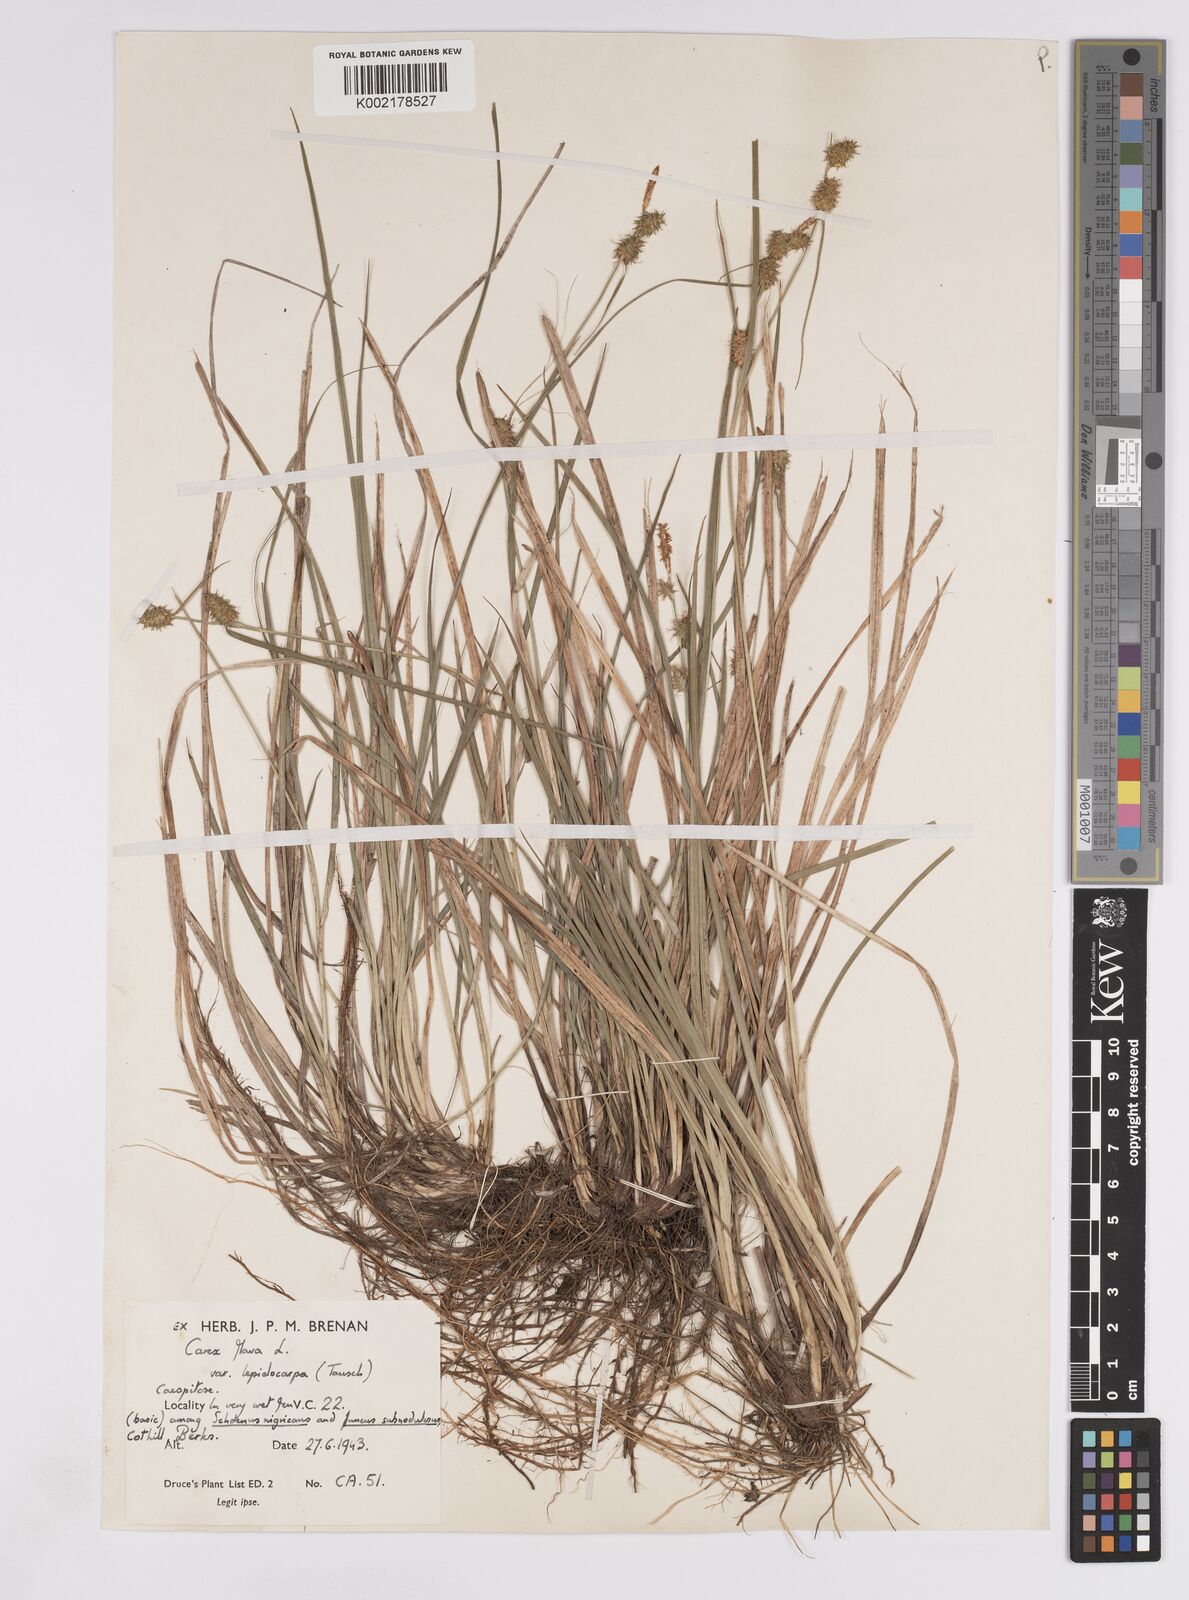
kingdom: Plantae
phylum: Tracheophyta
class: Liliopsida
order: Poales
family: Cyperaceae
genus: Carex
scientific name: Carex lepidocarpa
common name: Long-stalked yellow-sedge
